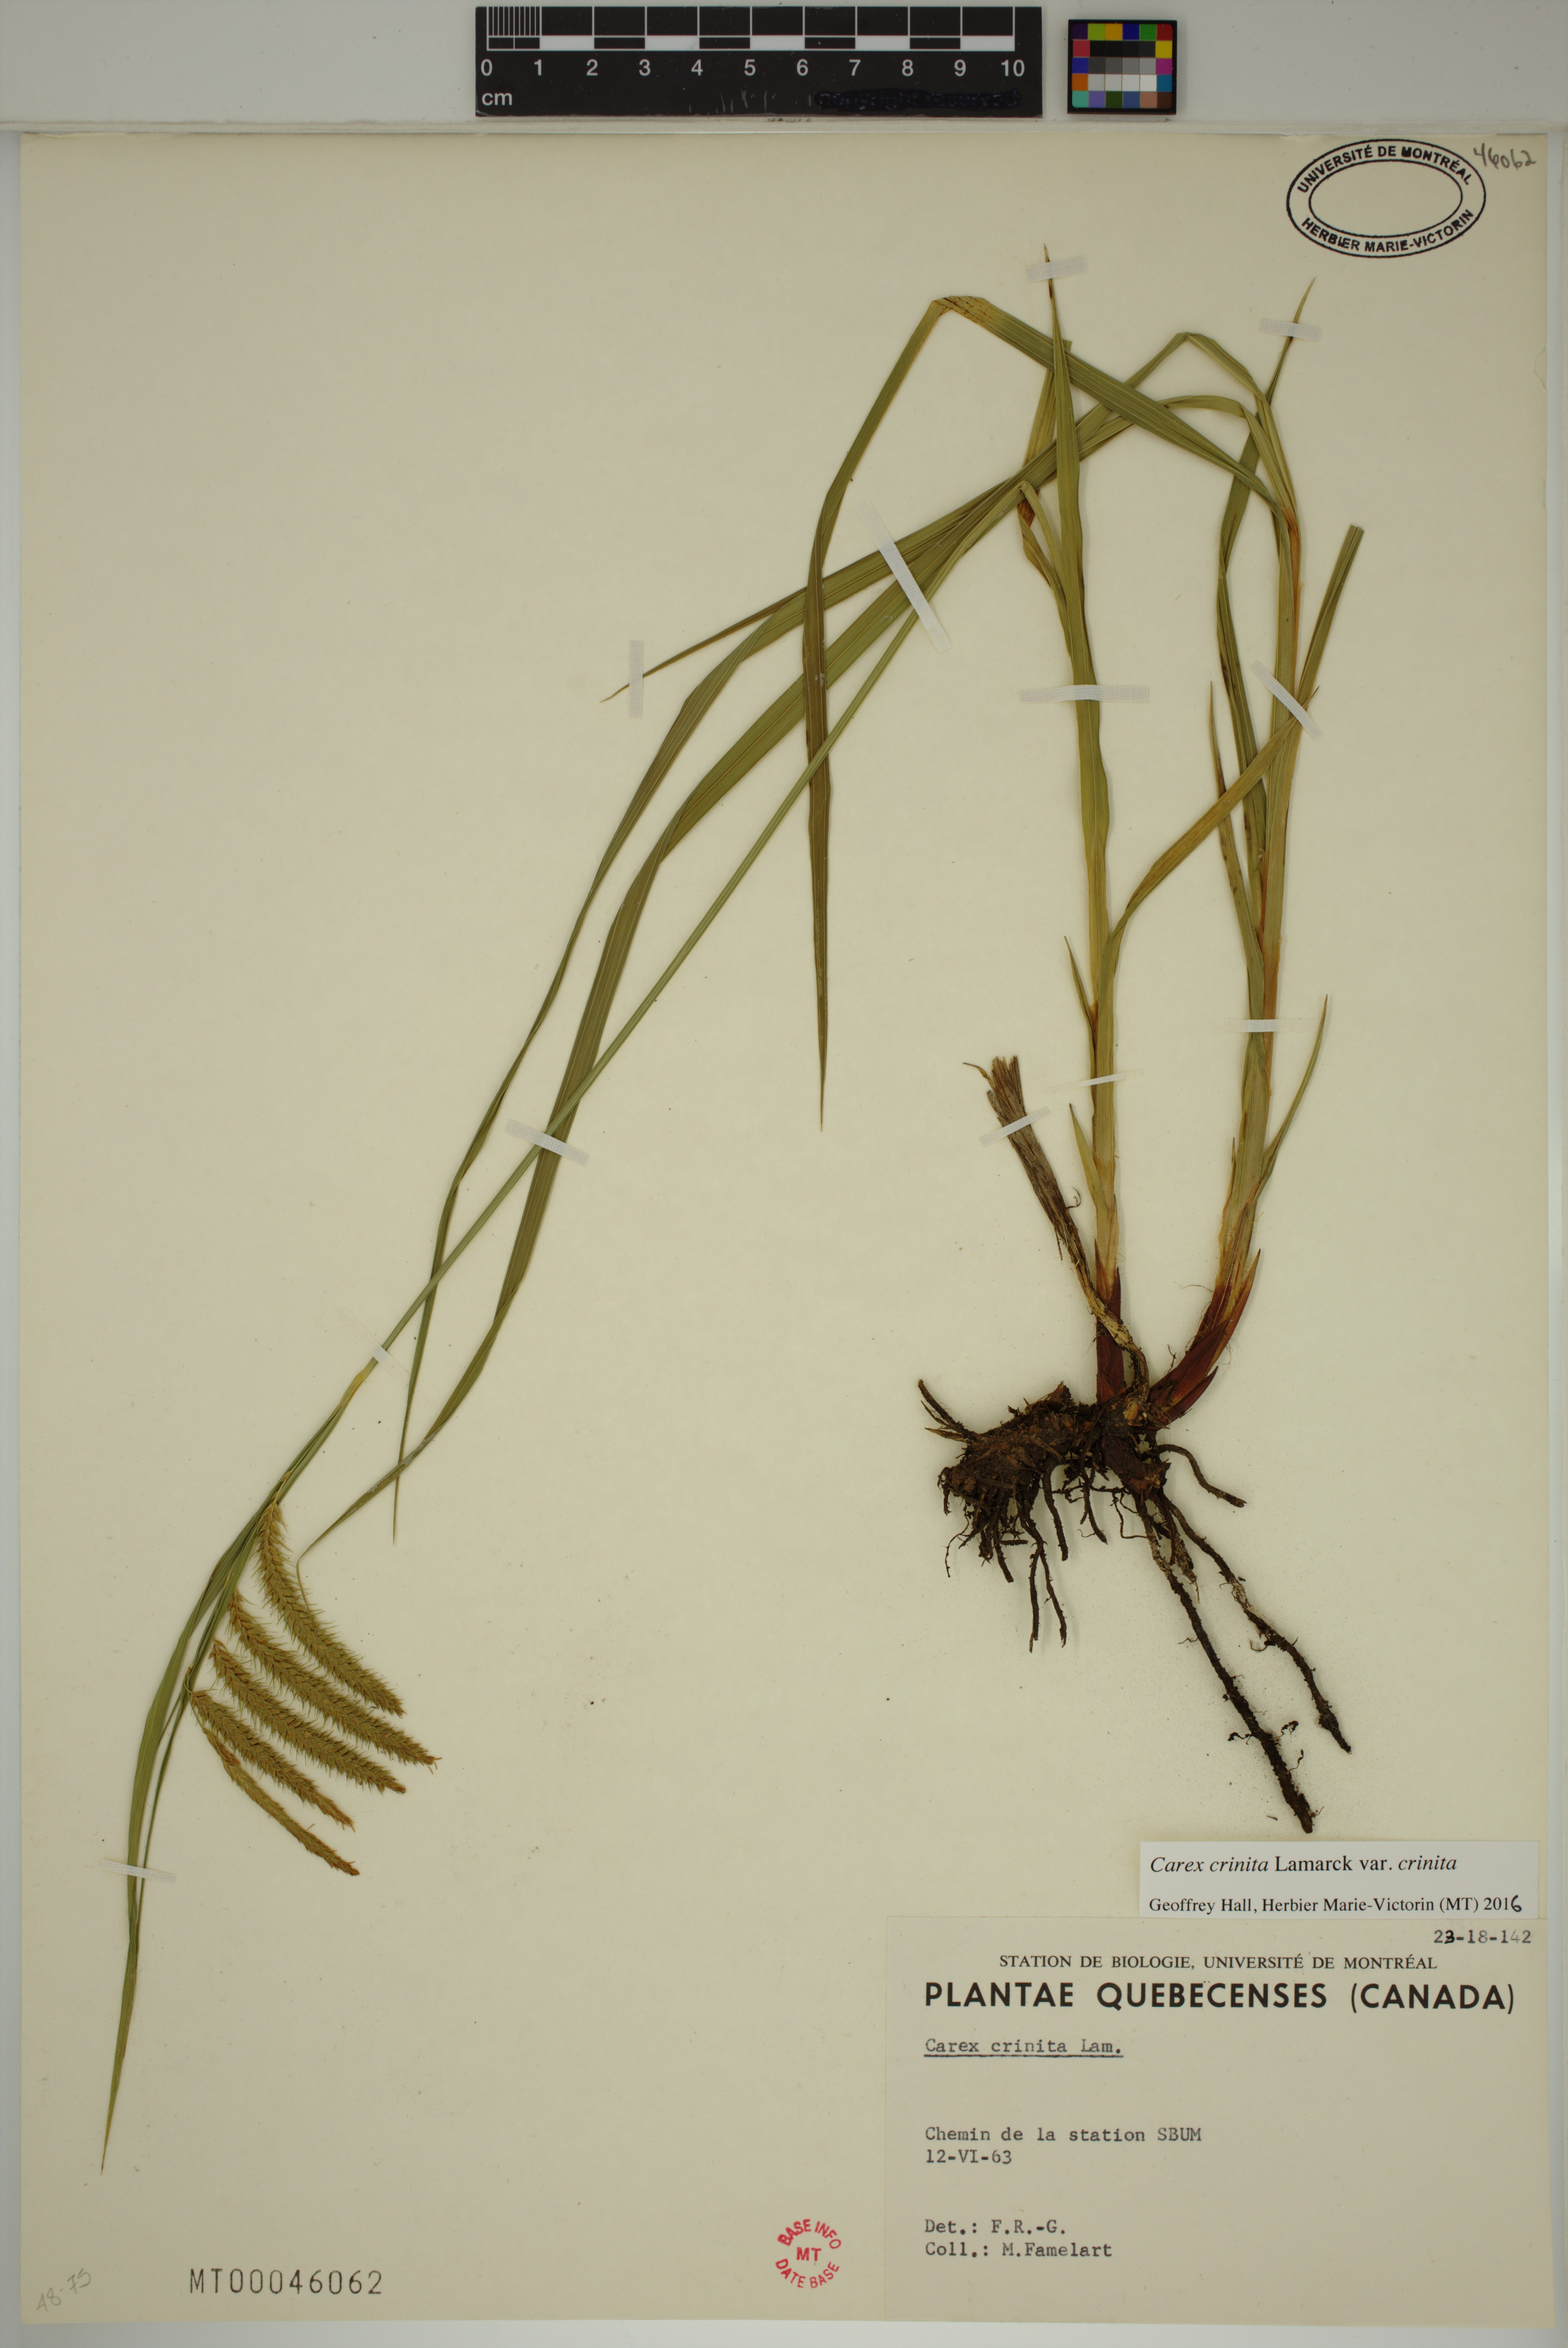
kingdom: Plantae
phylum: Tracheophyta
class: Liliopsida
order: Poales
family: Cyperaceae
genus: Carex
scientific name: Carex crinita
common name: Fringed sedge
